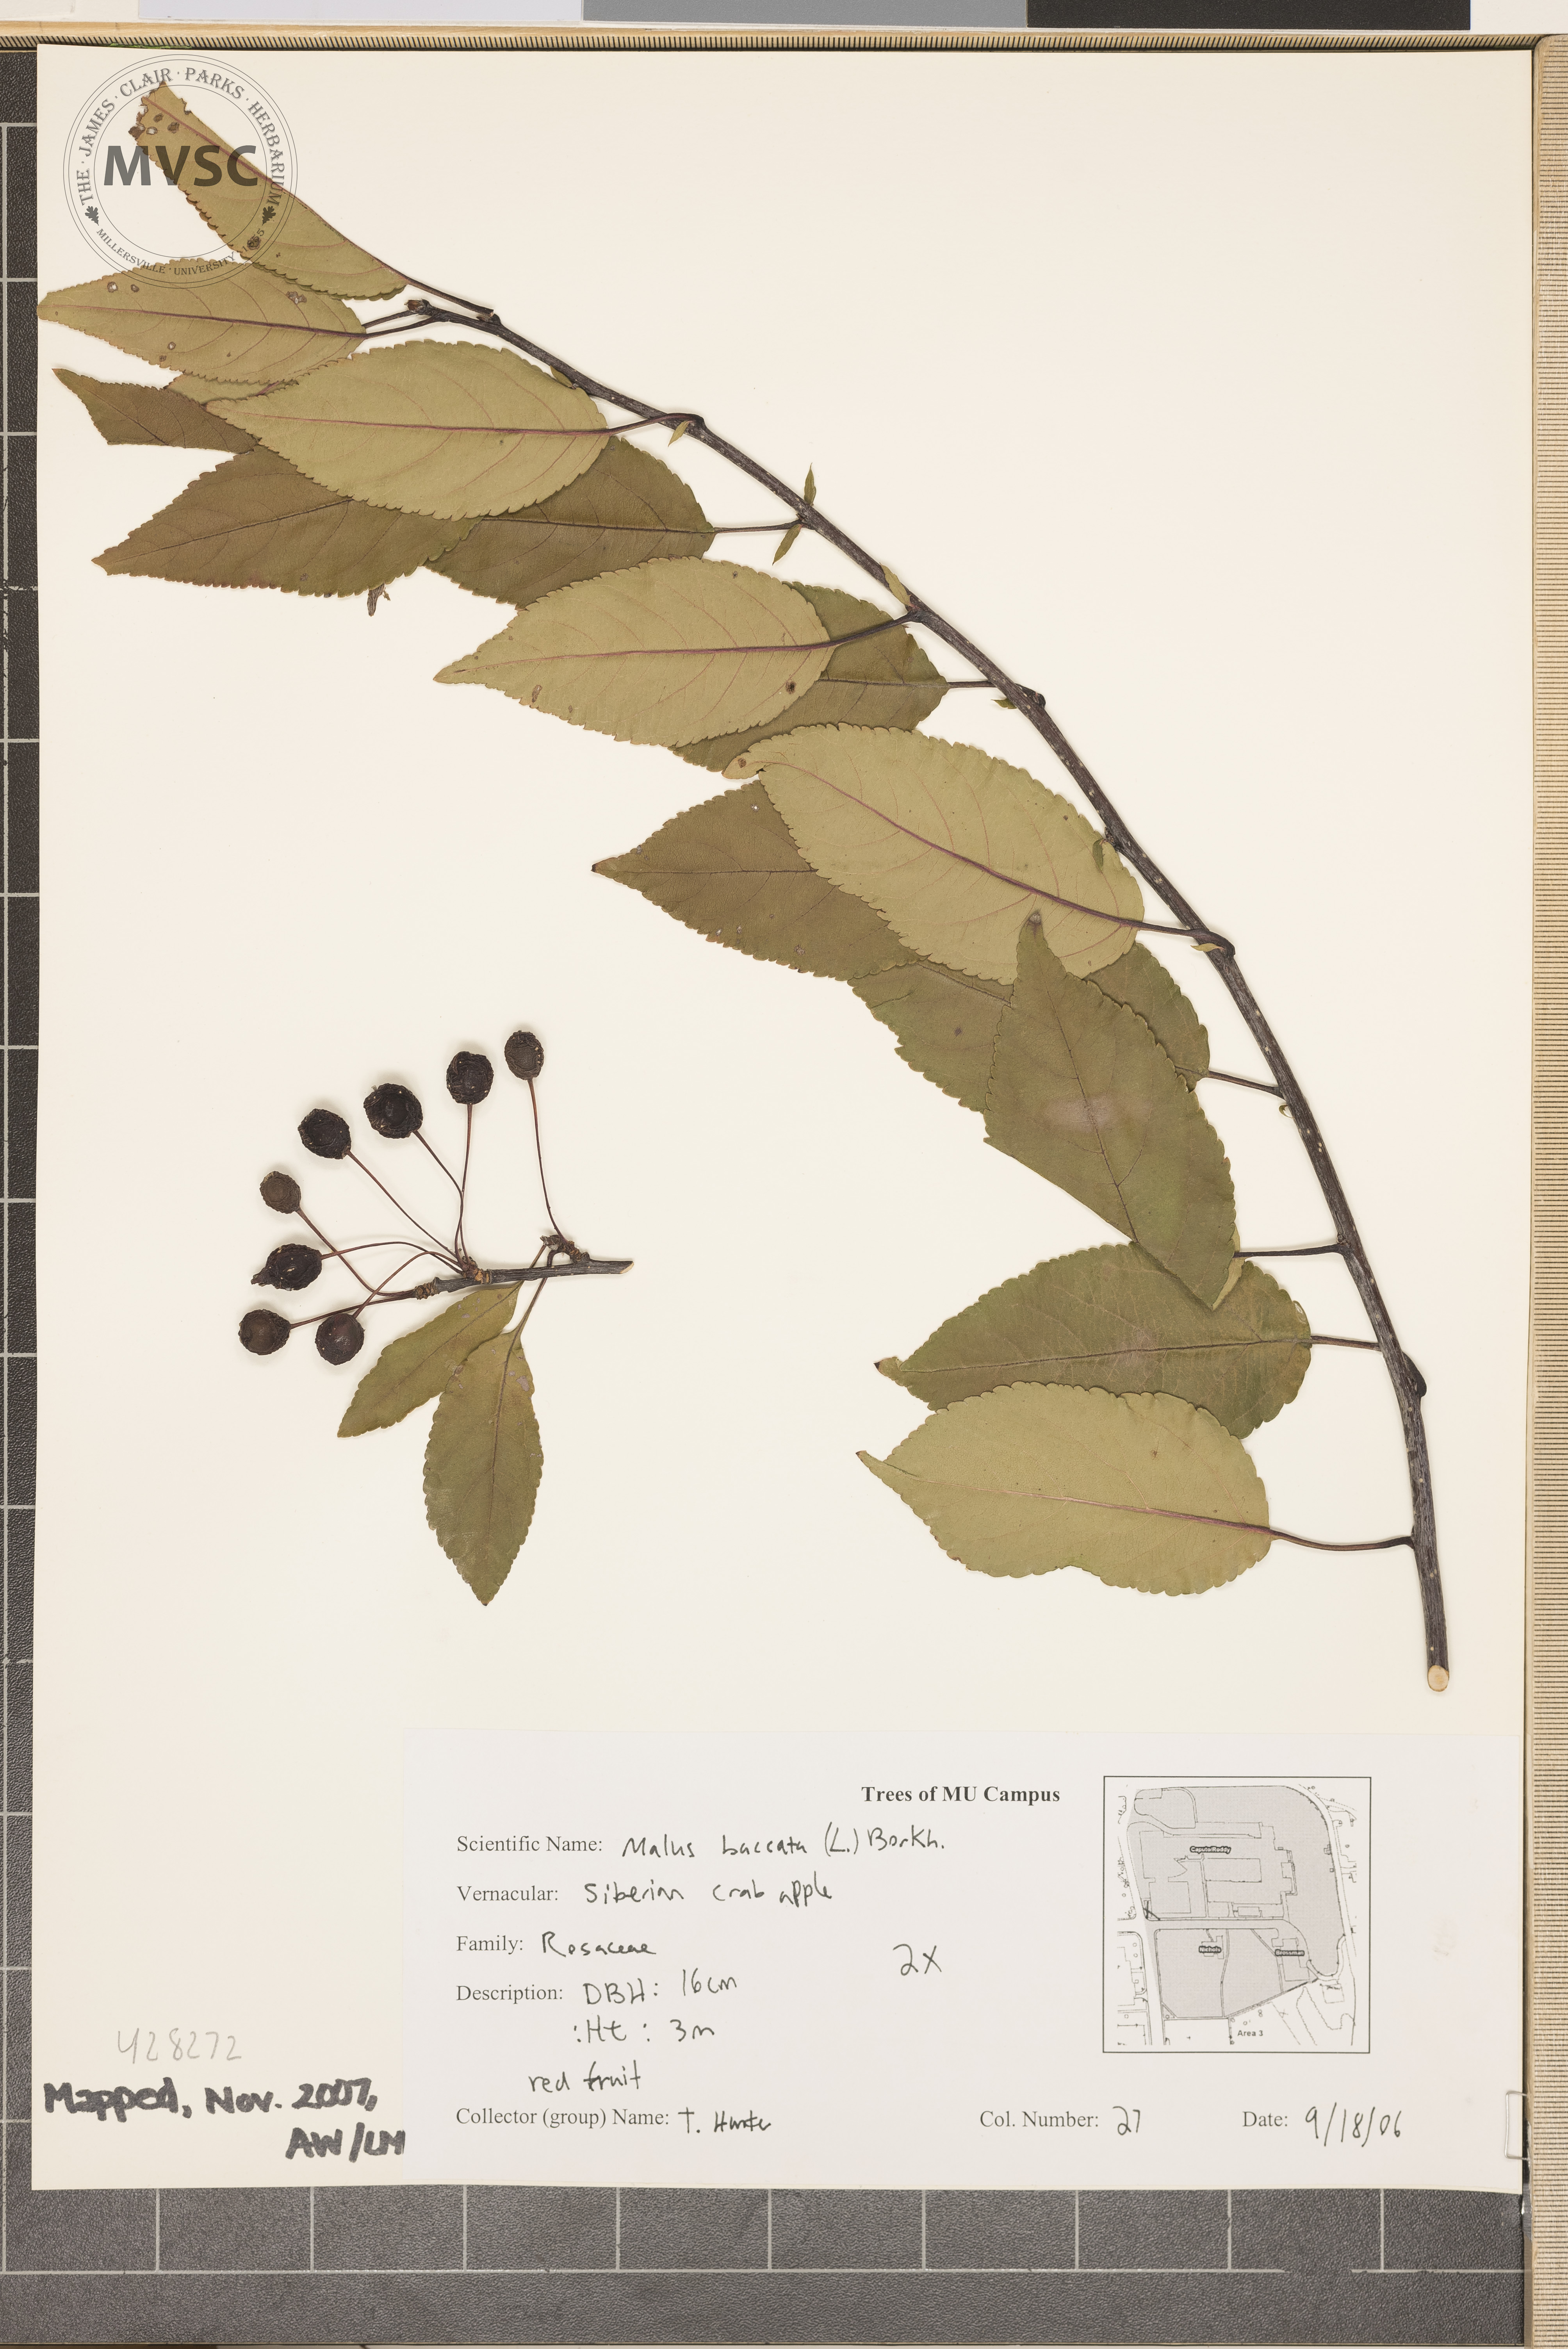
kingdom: Plantae
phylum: Tracheophyta
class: Magnoliopsida
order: Rosales
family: Rosaceae
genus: Malus
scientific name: Malus baccata
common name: Siberian Crabapple
